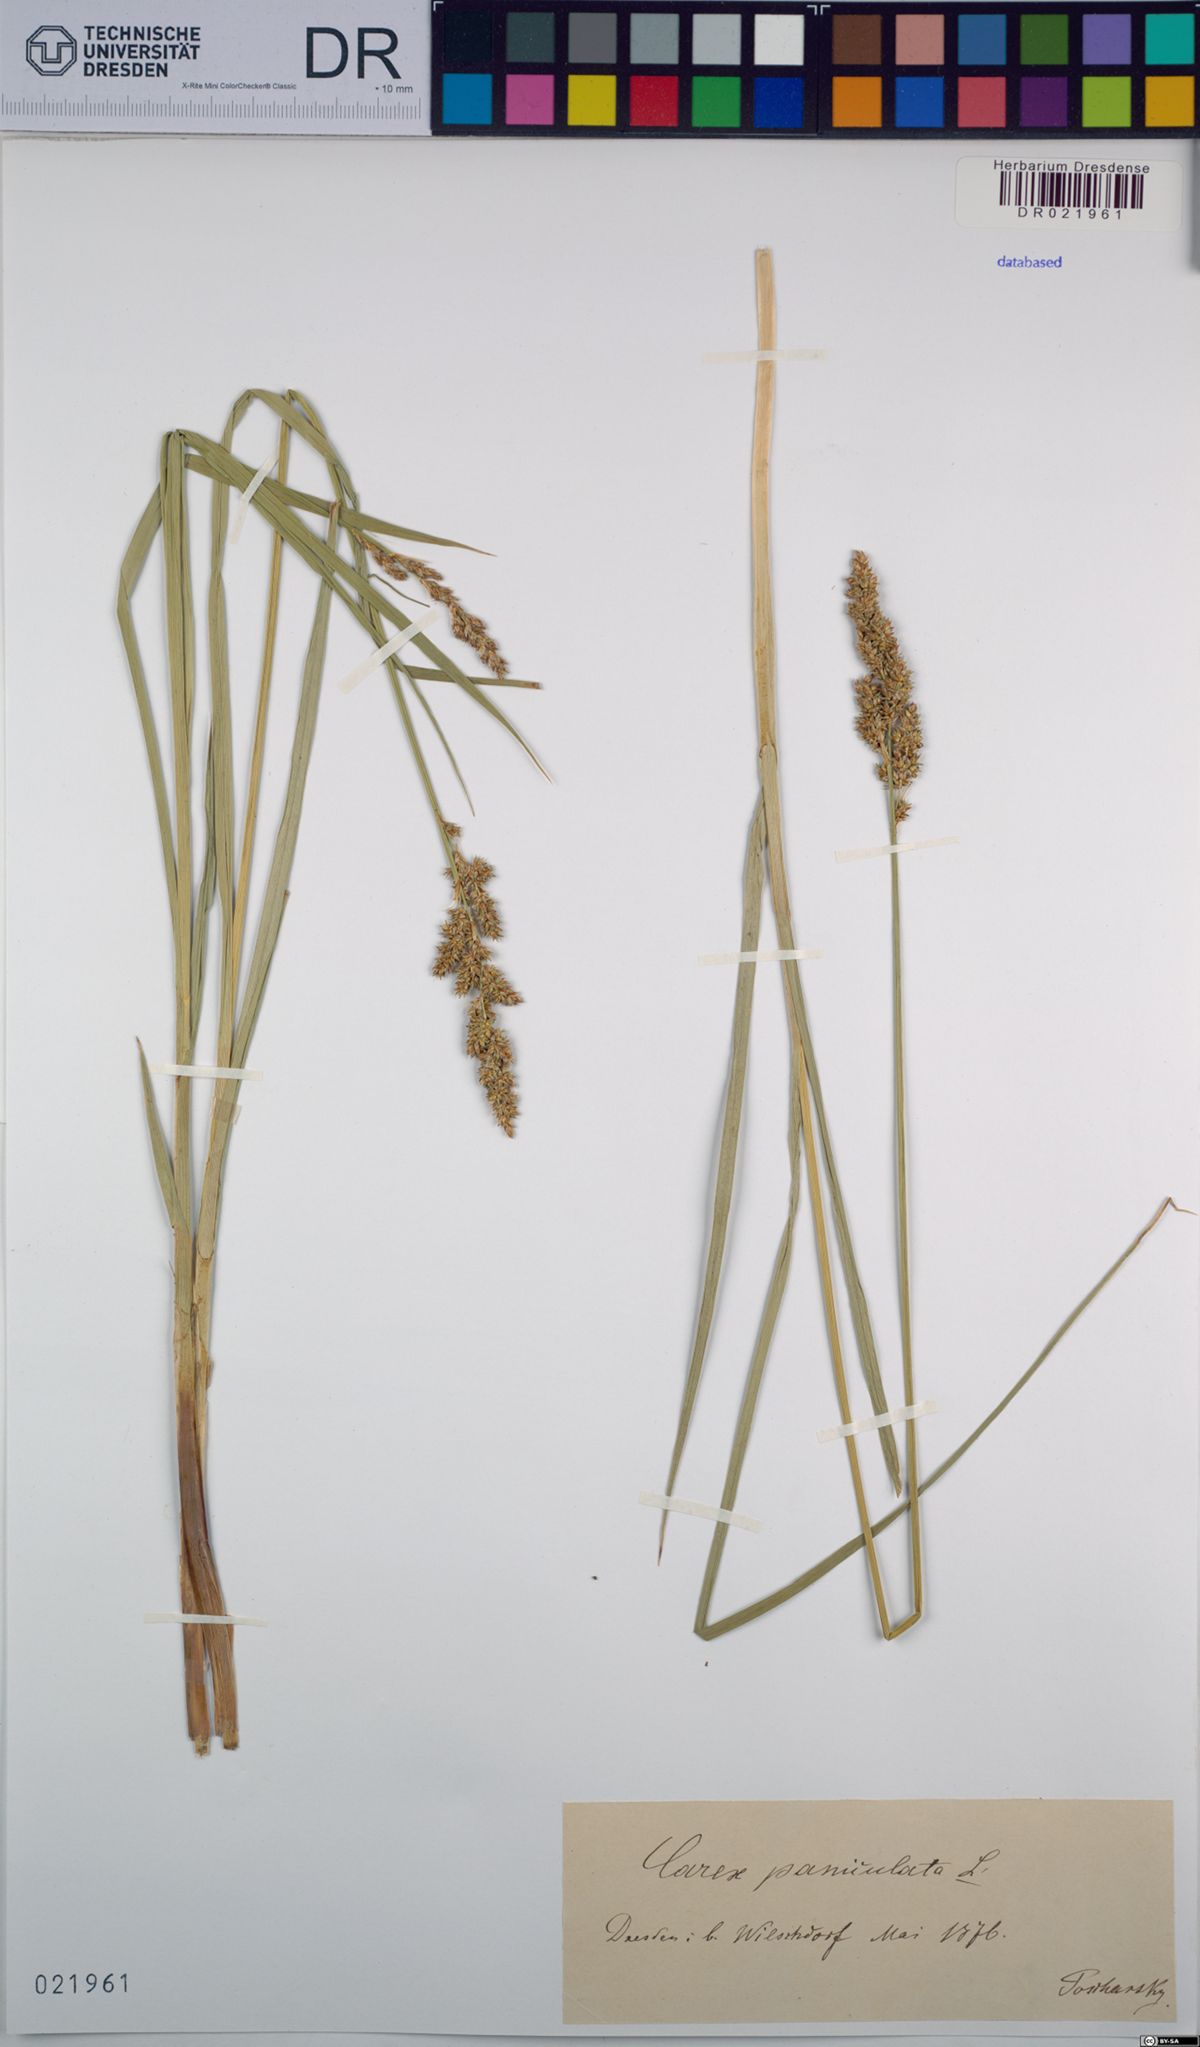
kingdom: Plantae
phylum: Tracheophyta
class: Liliopsida
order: Poales
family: Cyperaceae
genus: Carex
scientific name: Carex paniculata
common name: Greater tussock-sedge
